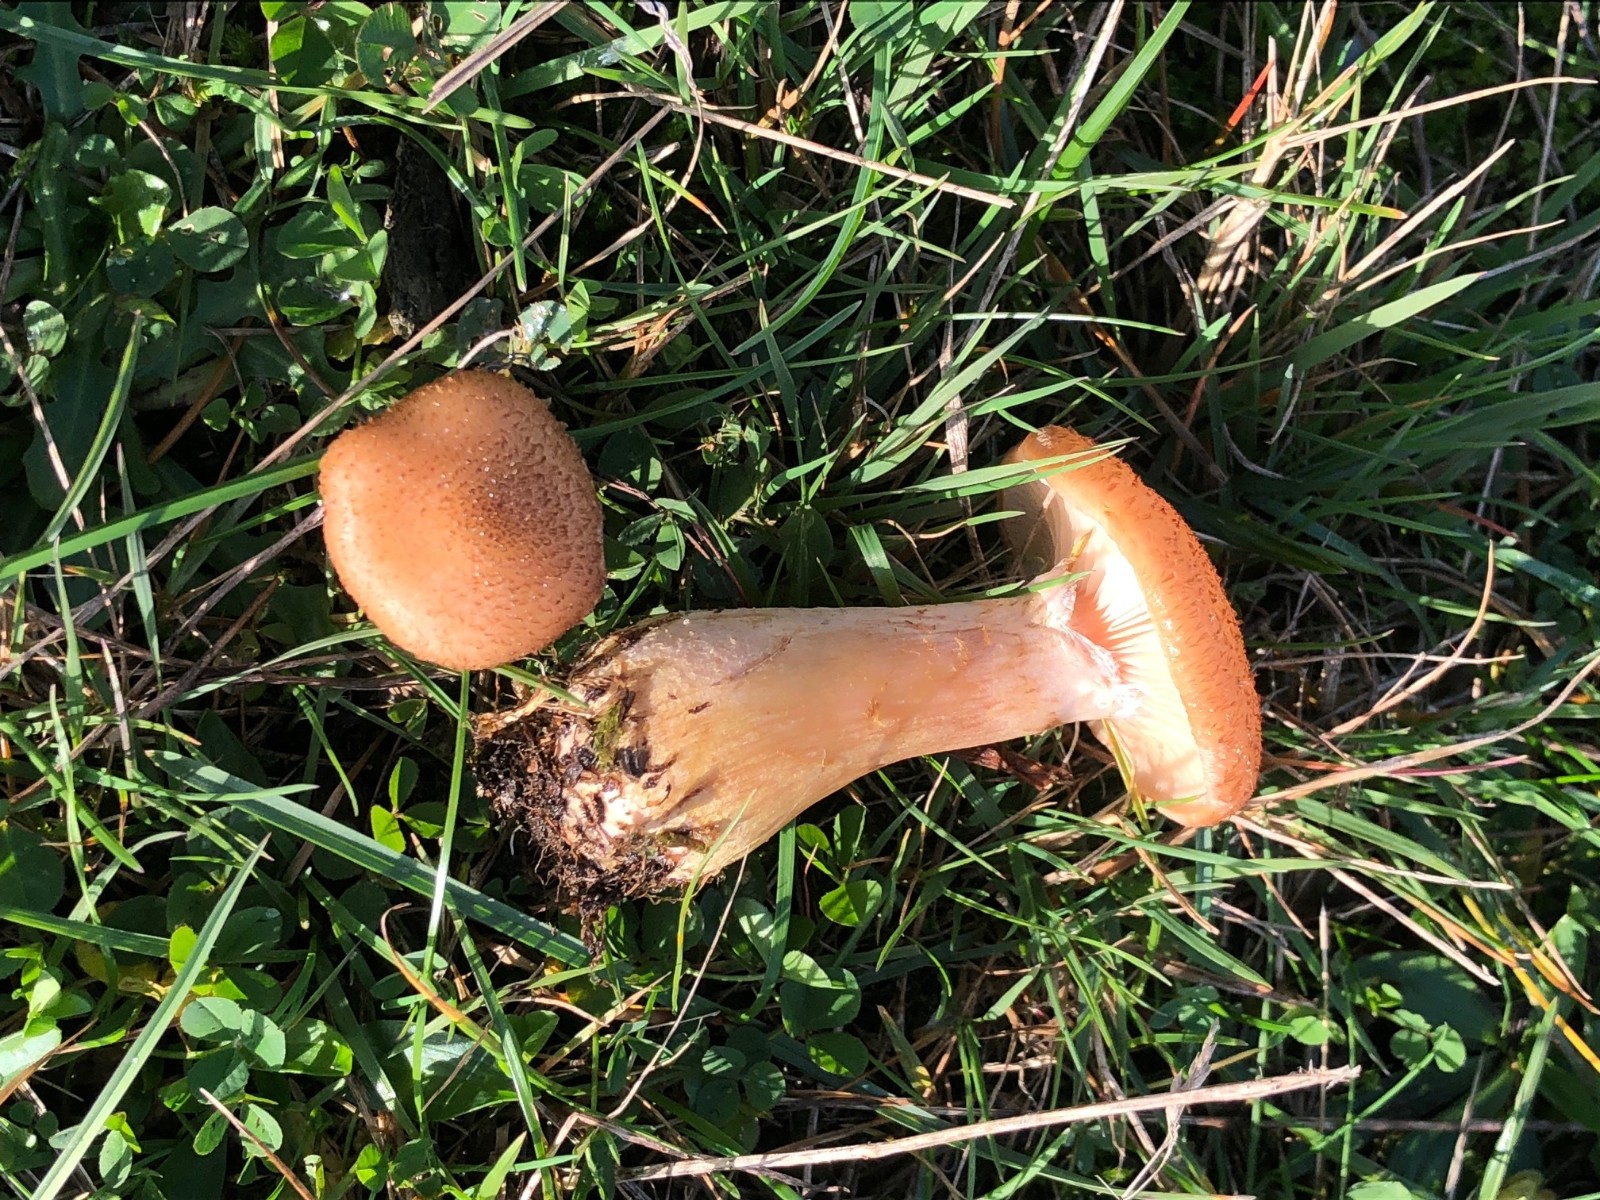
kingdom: Fungi
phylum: Basidiomycota
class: Agaricomycetes
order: Agaricales
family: Physalacriaceae
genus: Armillaria
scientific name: Armillaria lutea
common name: køllestokket honningsvamp
